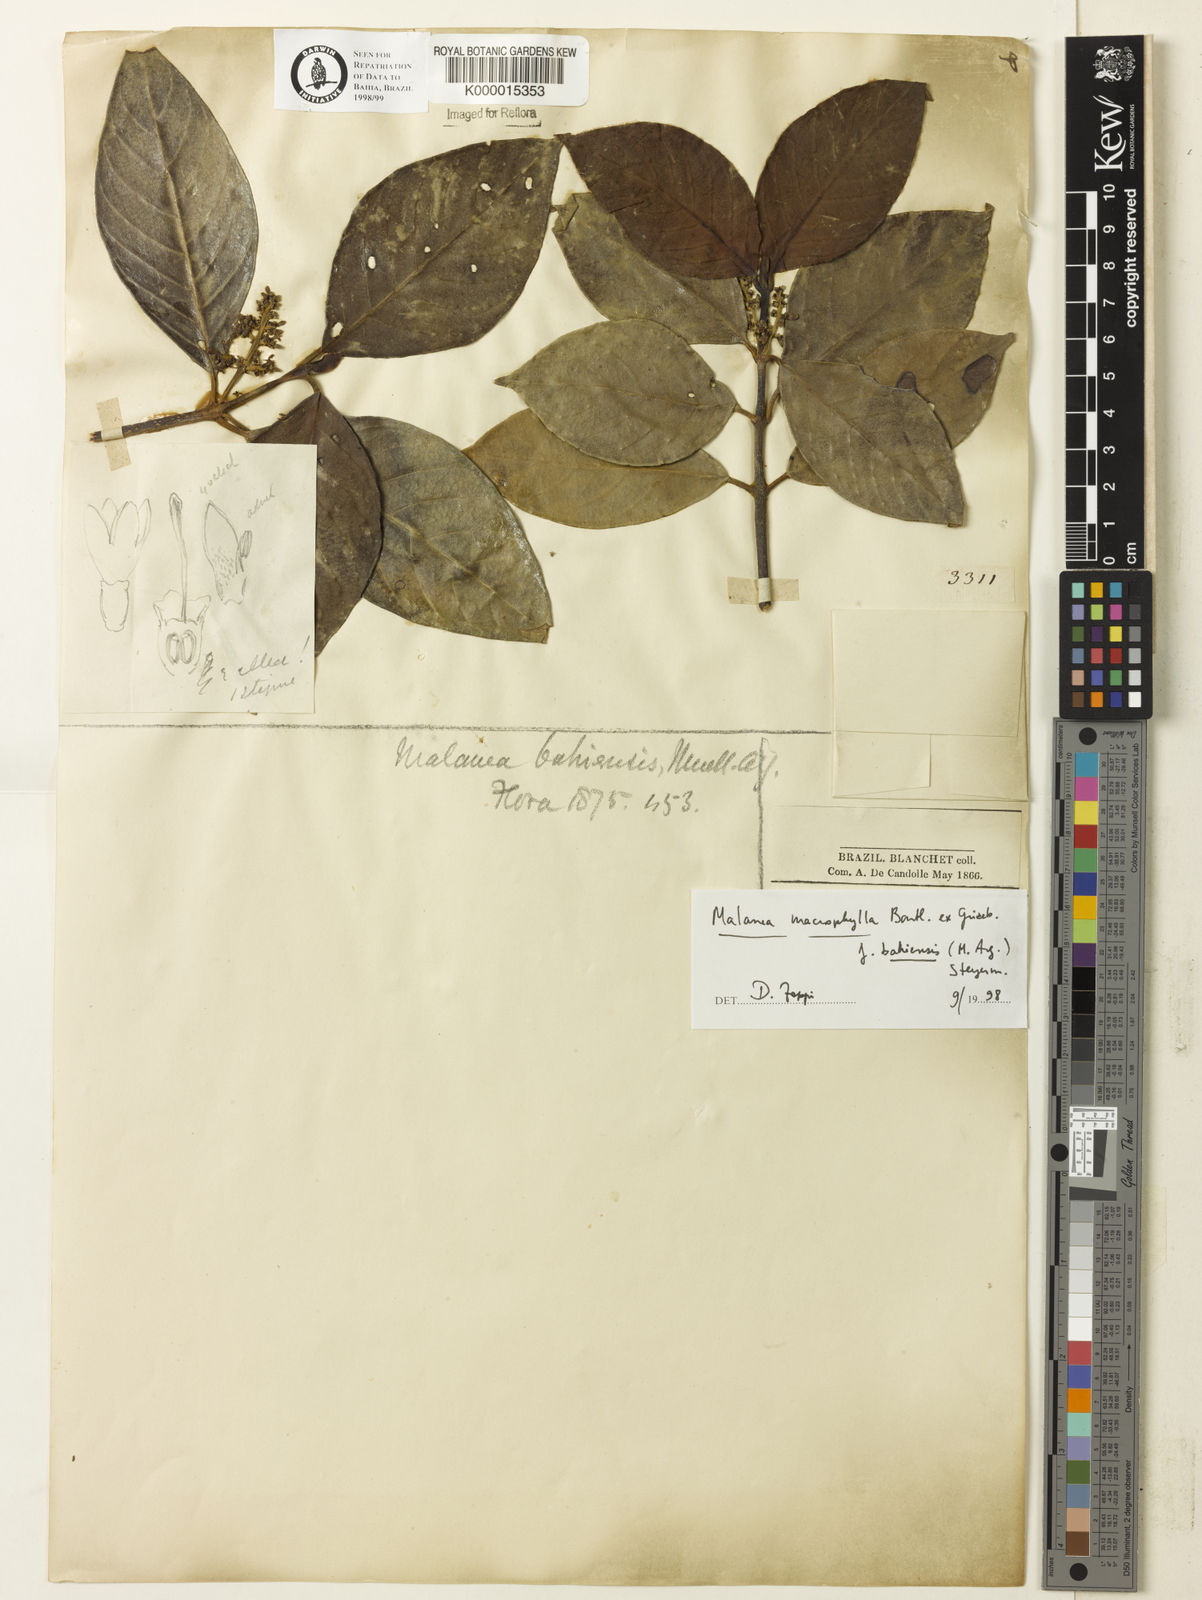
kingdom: Plantae
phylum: Tracheophyta
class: Magnoliopsida
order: Gentianales
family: Rubiaceae
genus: Malanea
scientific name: Malanea glabra
